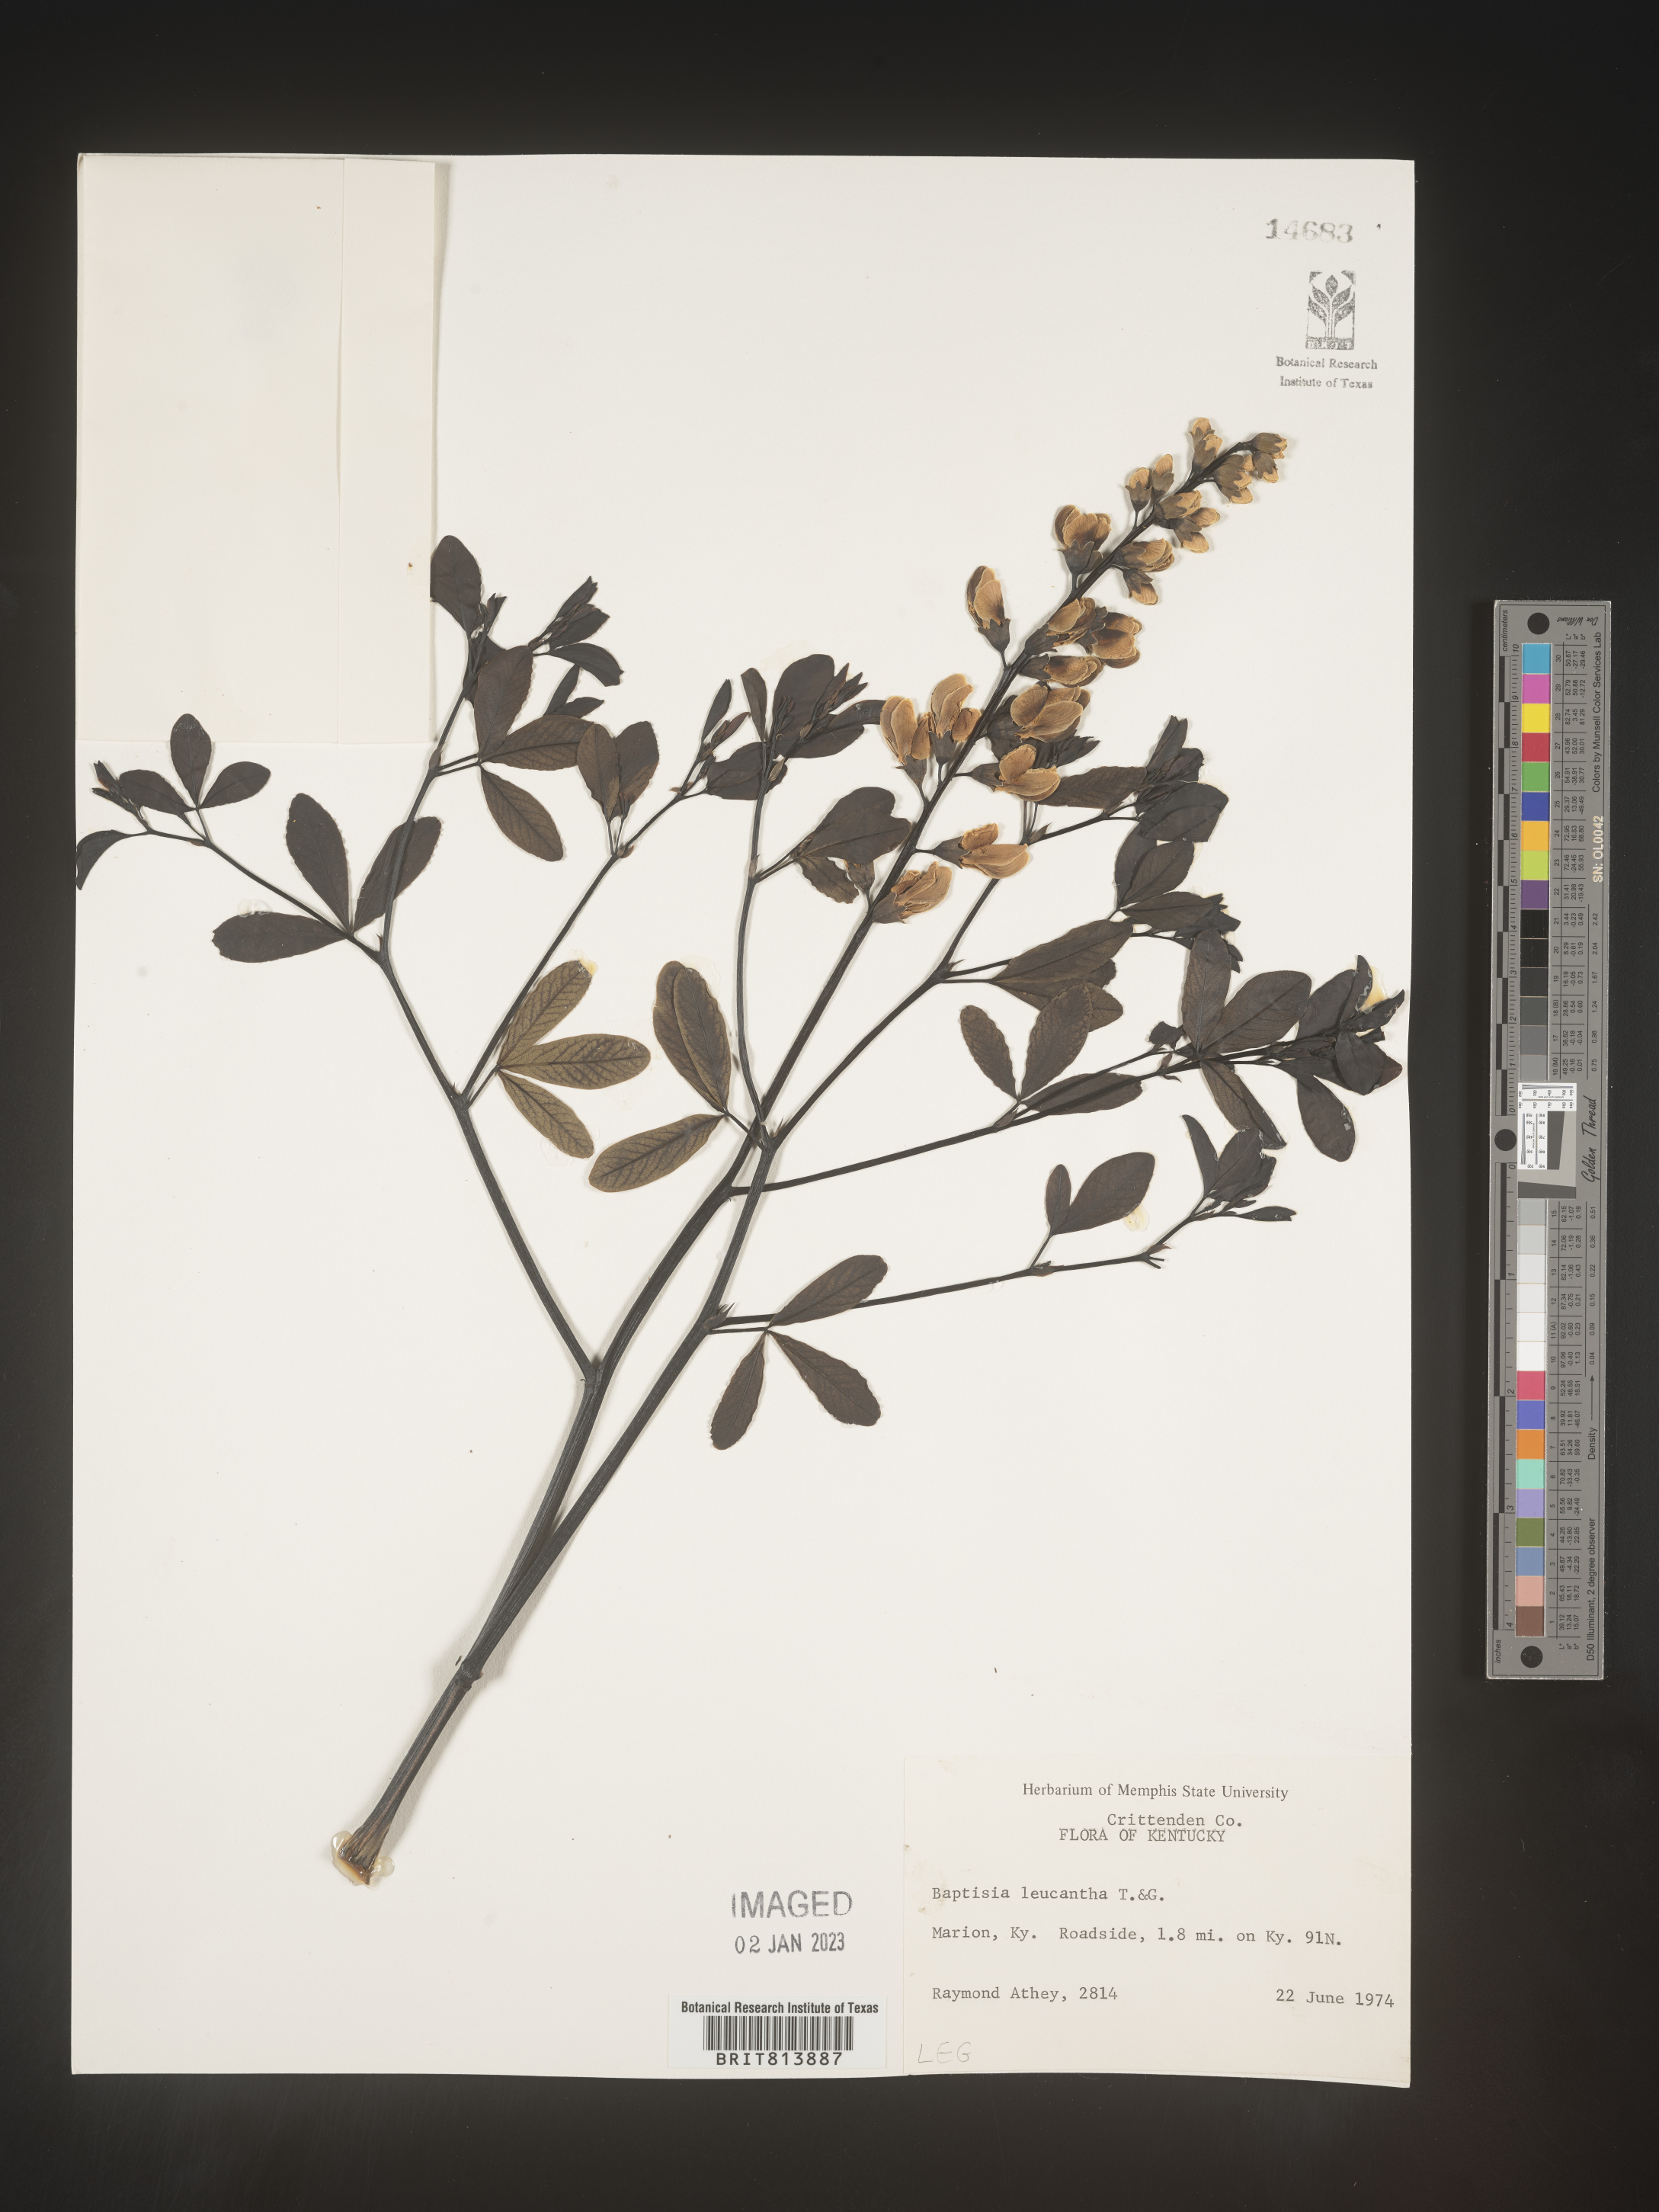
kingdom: Plantae
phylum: Tracheophyta
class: Magnoliopsida
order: Fabales
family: Fabaceae
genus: Baptisia
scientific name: Baptisia alba
